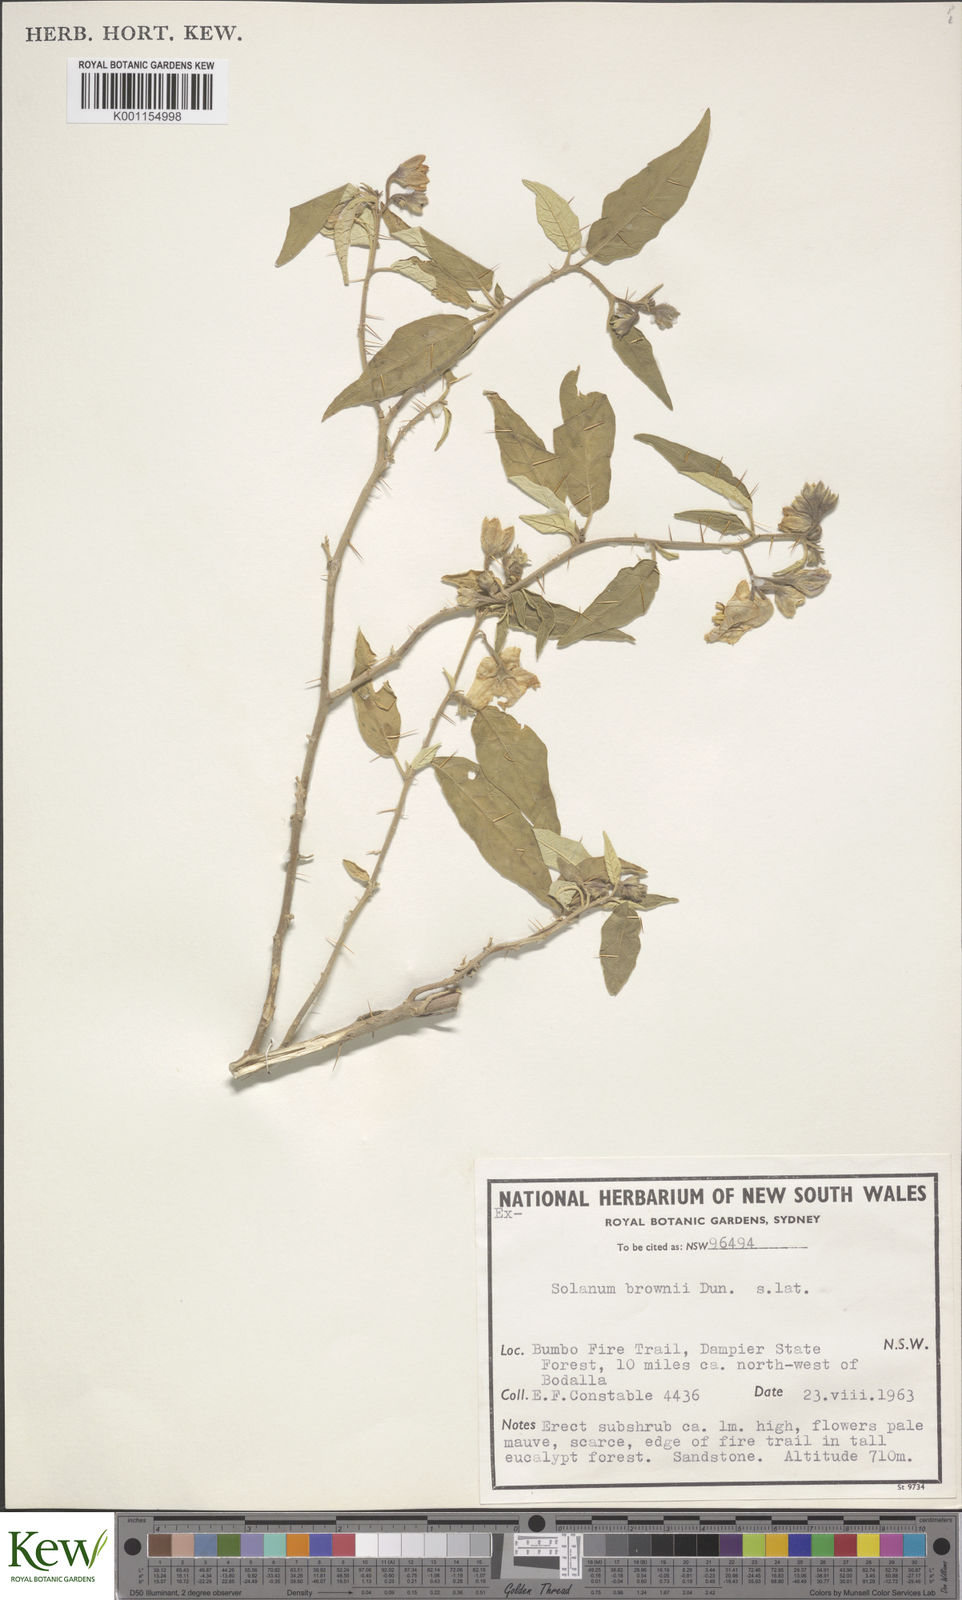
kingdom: Plantae
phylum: Tracheophyta
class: Magnoliopsida
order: Solanales
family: Solanaceae
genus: Solanum
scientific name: Solanum brownii
